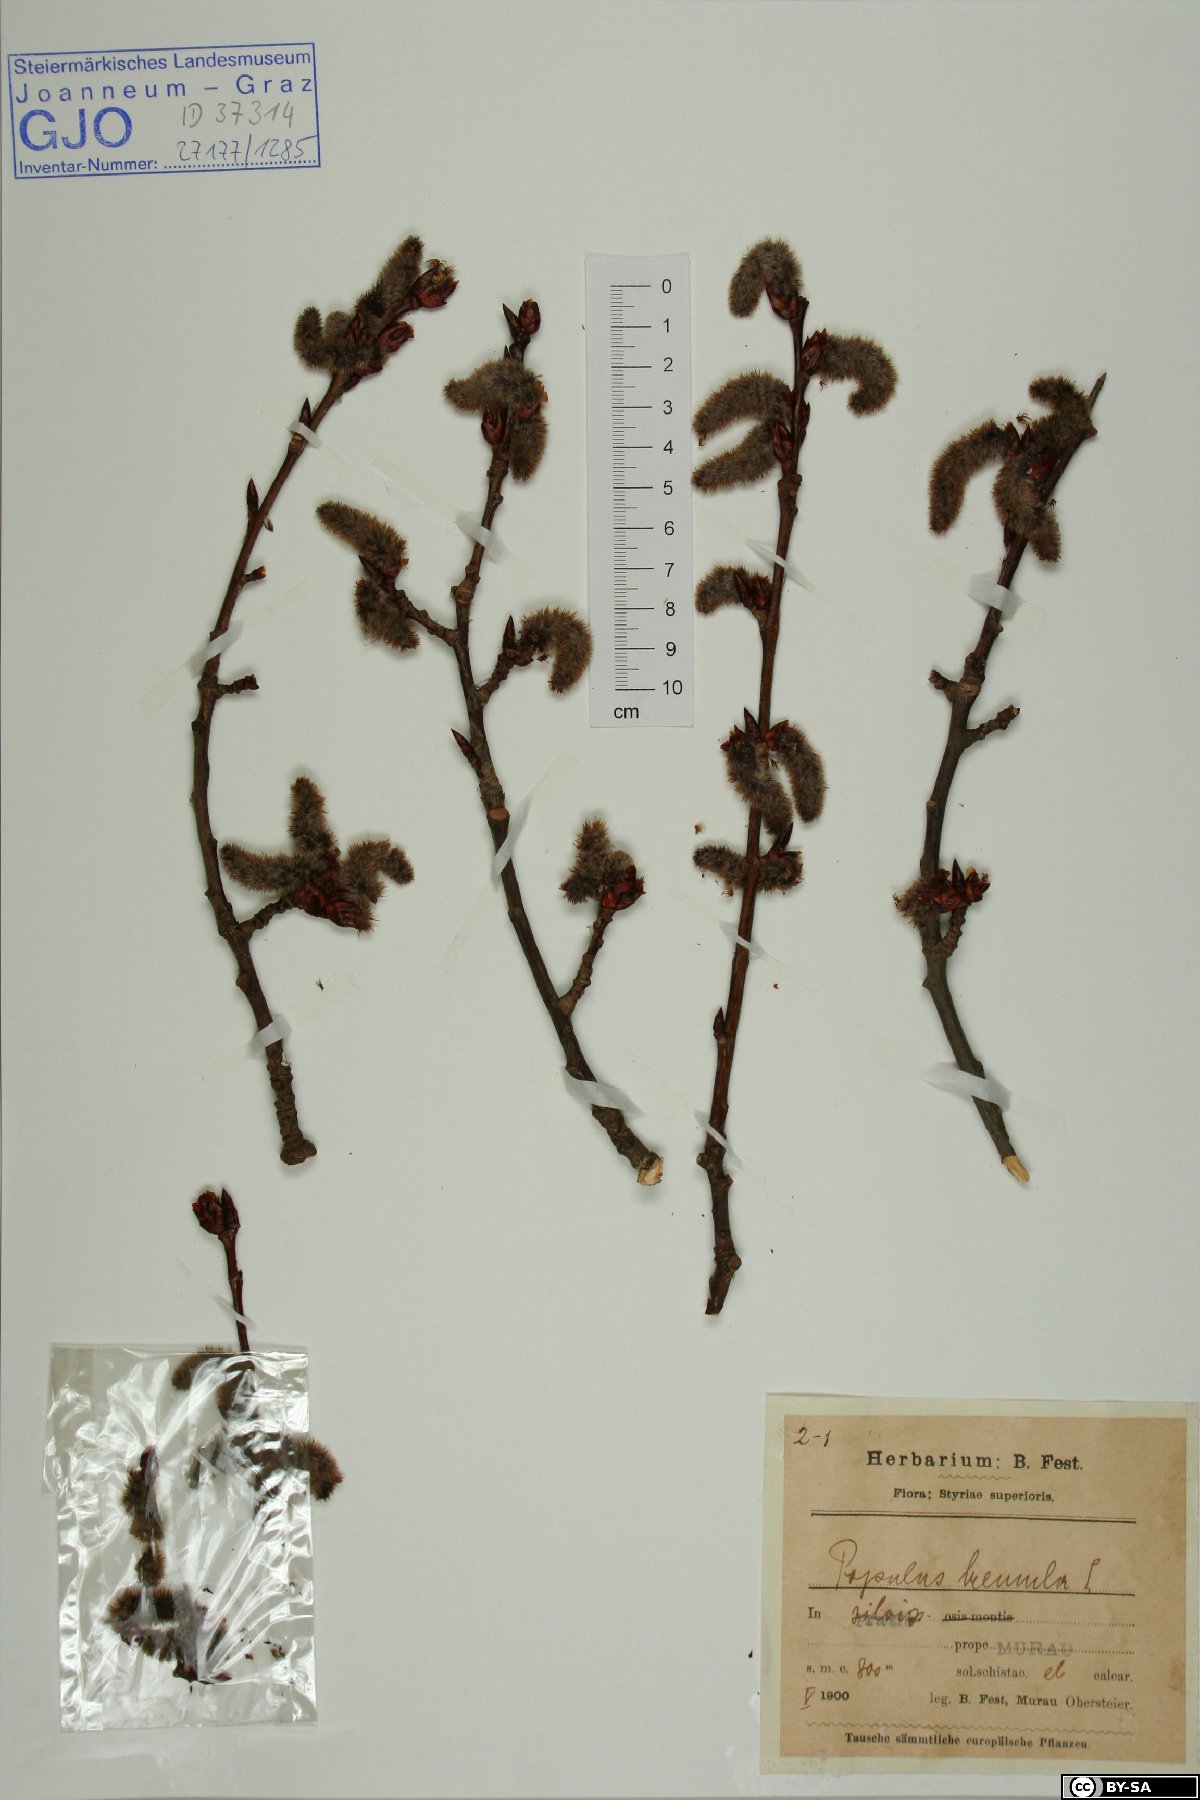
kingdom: Plantae
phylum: Tracheophyta
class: Magnoliopsida
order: Malpighiales
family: Salicaceae
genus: Populus
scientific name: Populus tremula
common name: European aspen
